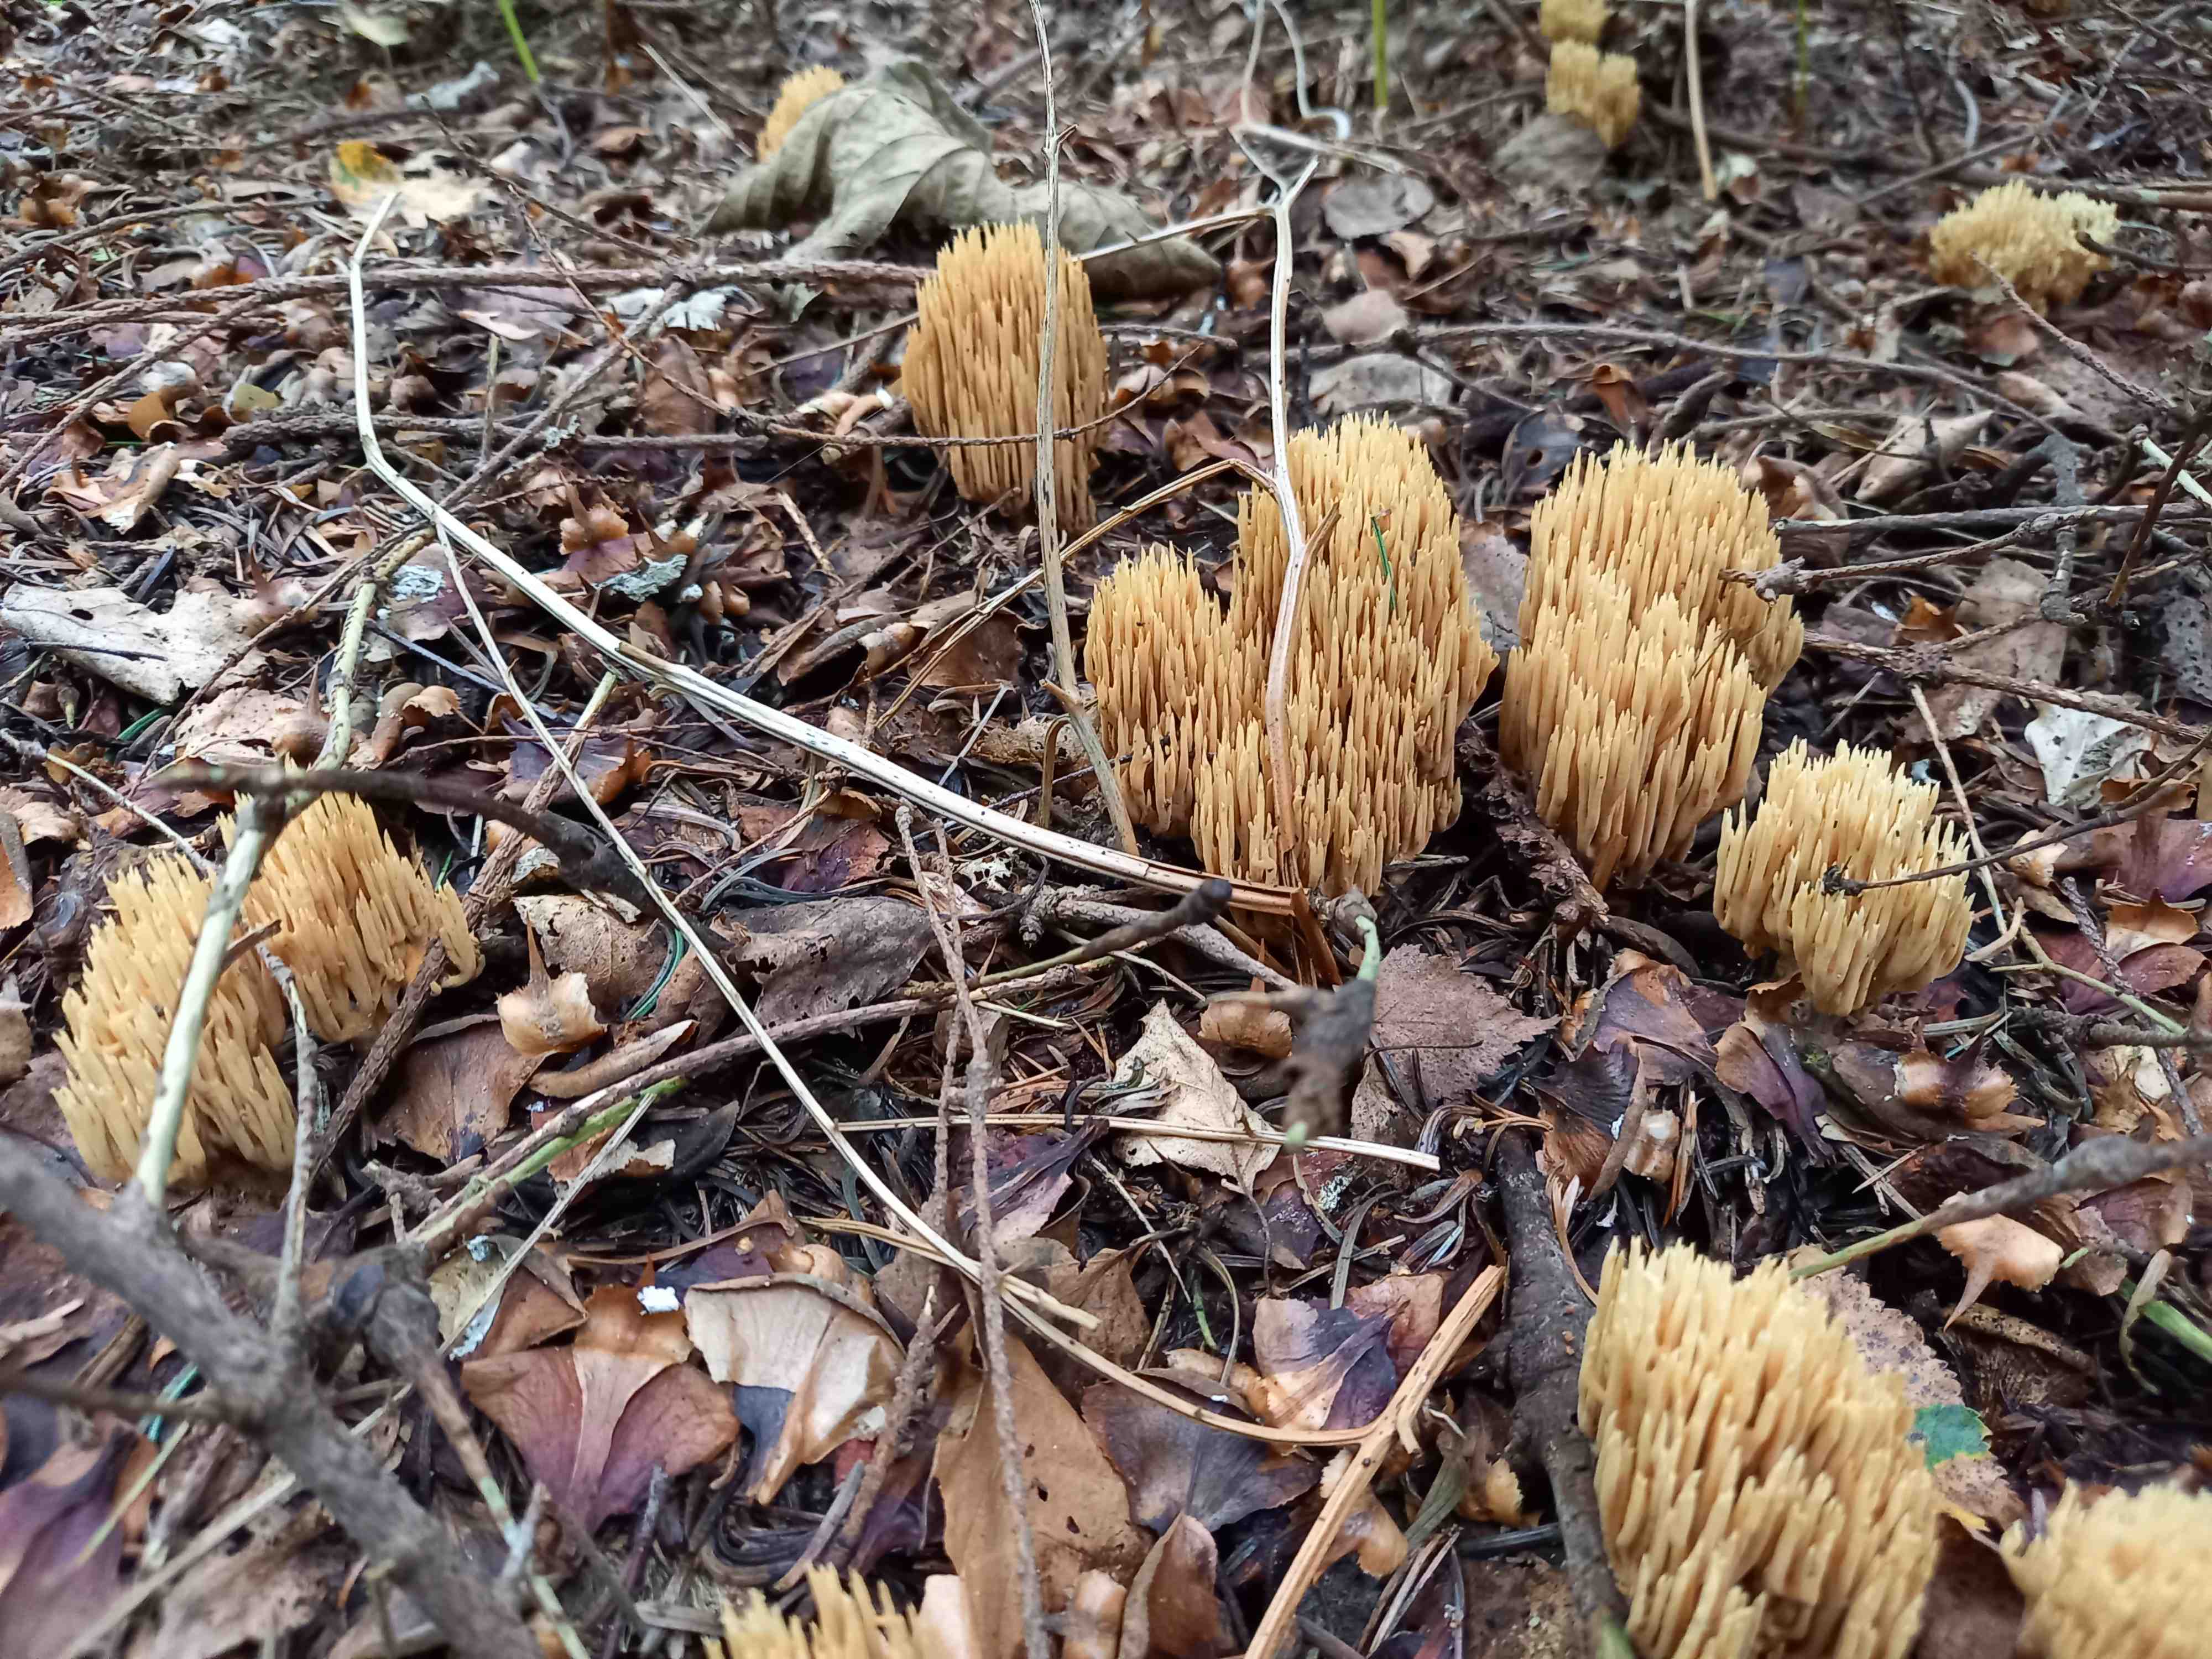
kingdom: Fungi
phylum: Basidiomycota
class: Agaricomycetes
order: Gomphales
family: Gomphaceae
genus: Phaeoclavulina
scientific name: Phaeoclavulina eumorpha
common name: gran-koralsvamp
